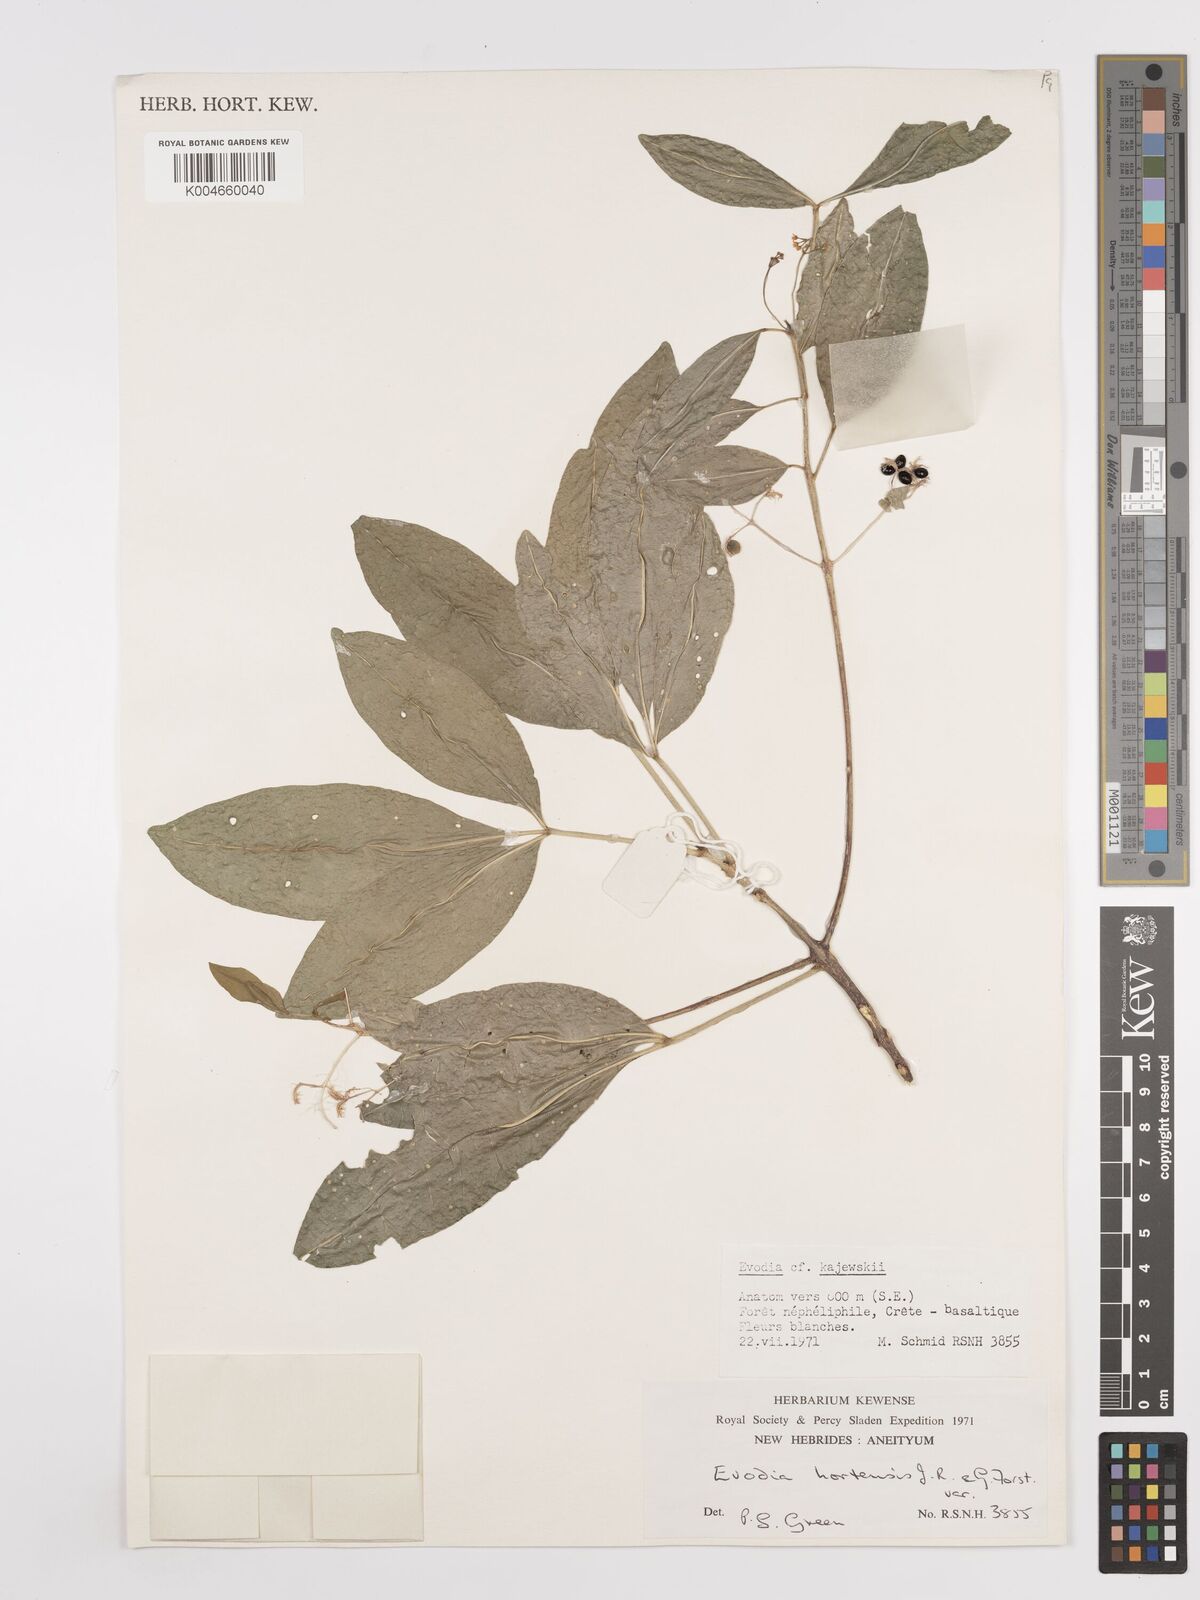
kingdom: Plantae
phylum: Tracheophyta
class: Magnoliopsida
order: Sapindales
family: Rutaceae
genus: Euodia
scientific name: Euodia hortensis
